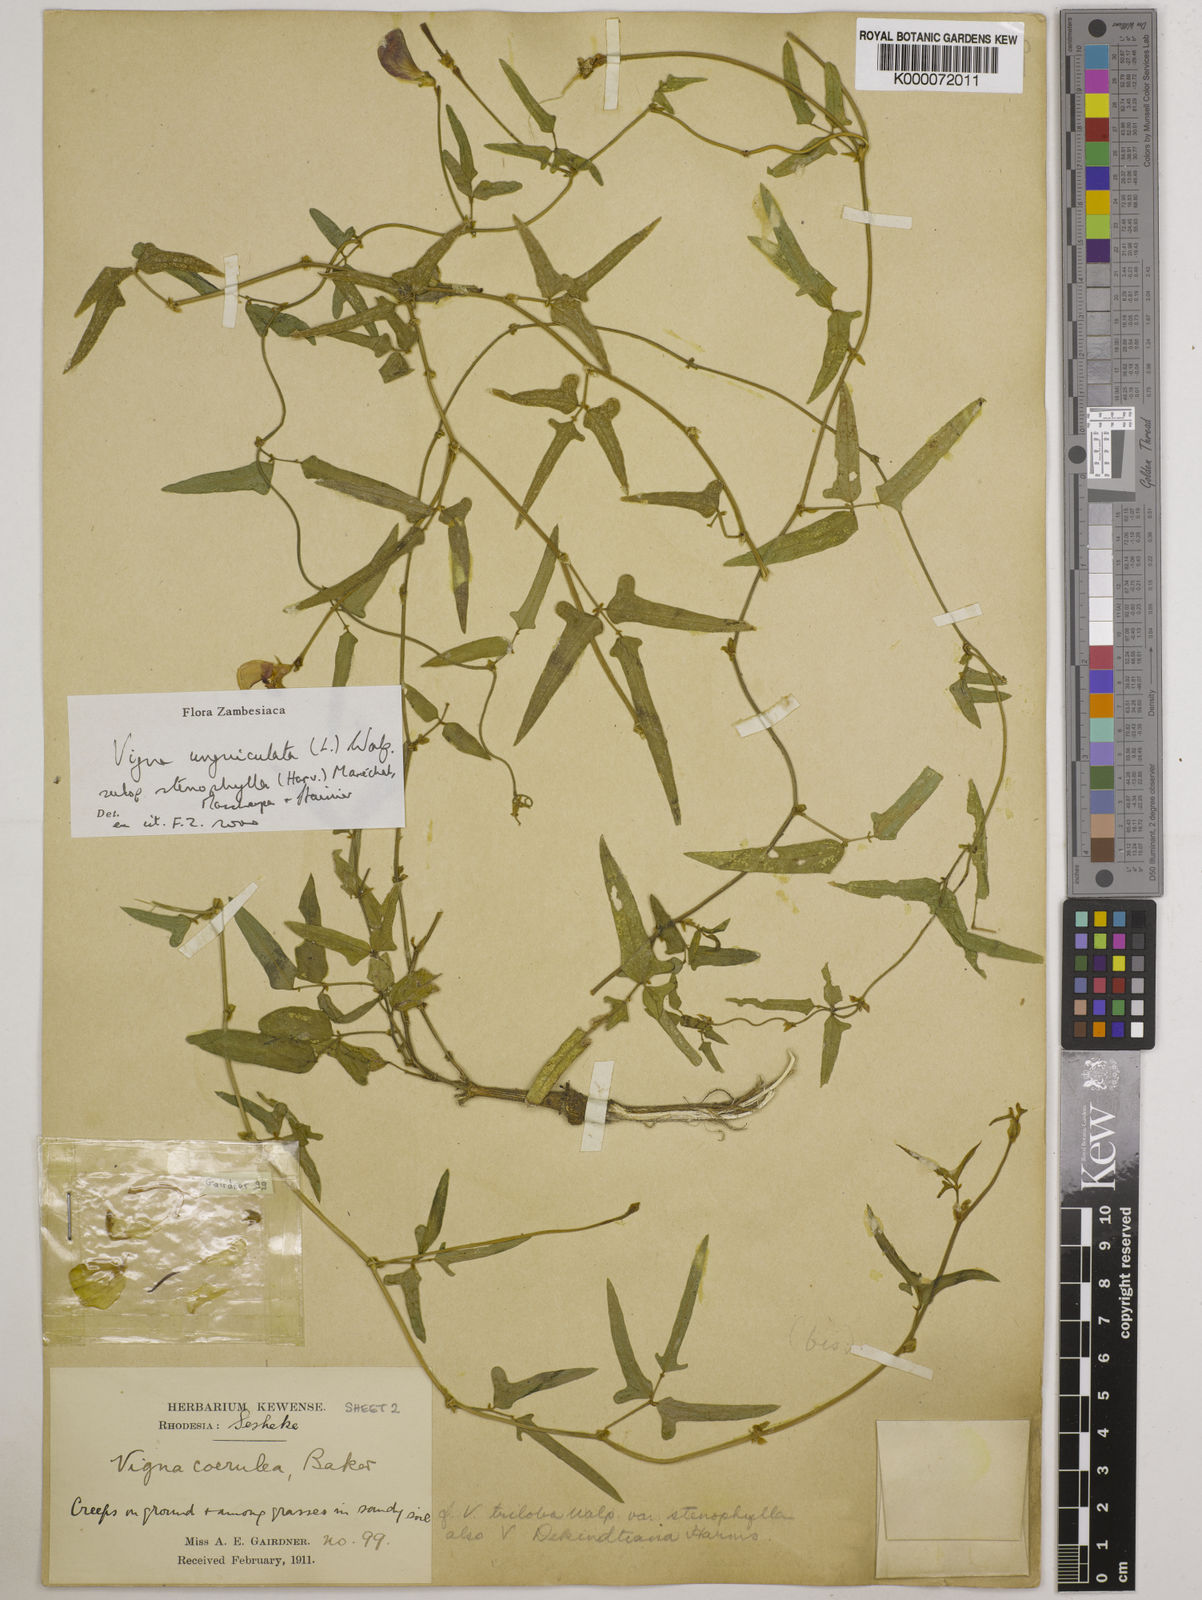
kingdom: Plantae
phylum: Tracheophyta
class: Magnoliopsida
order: Fabales
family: Fabaceae
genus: Vigna
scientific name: Vigna unguiculata
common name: Cowpea
